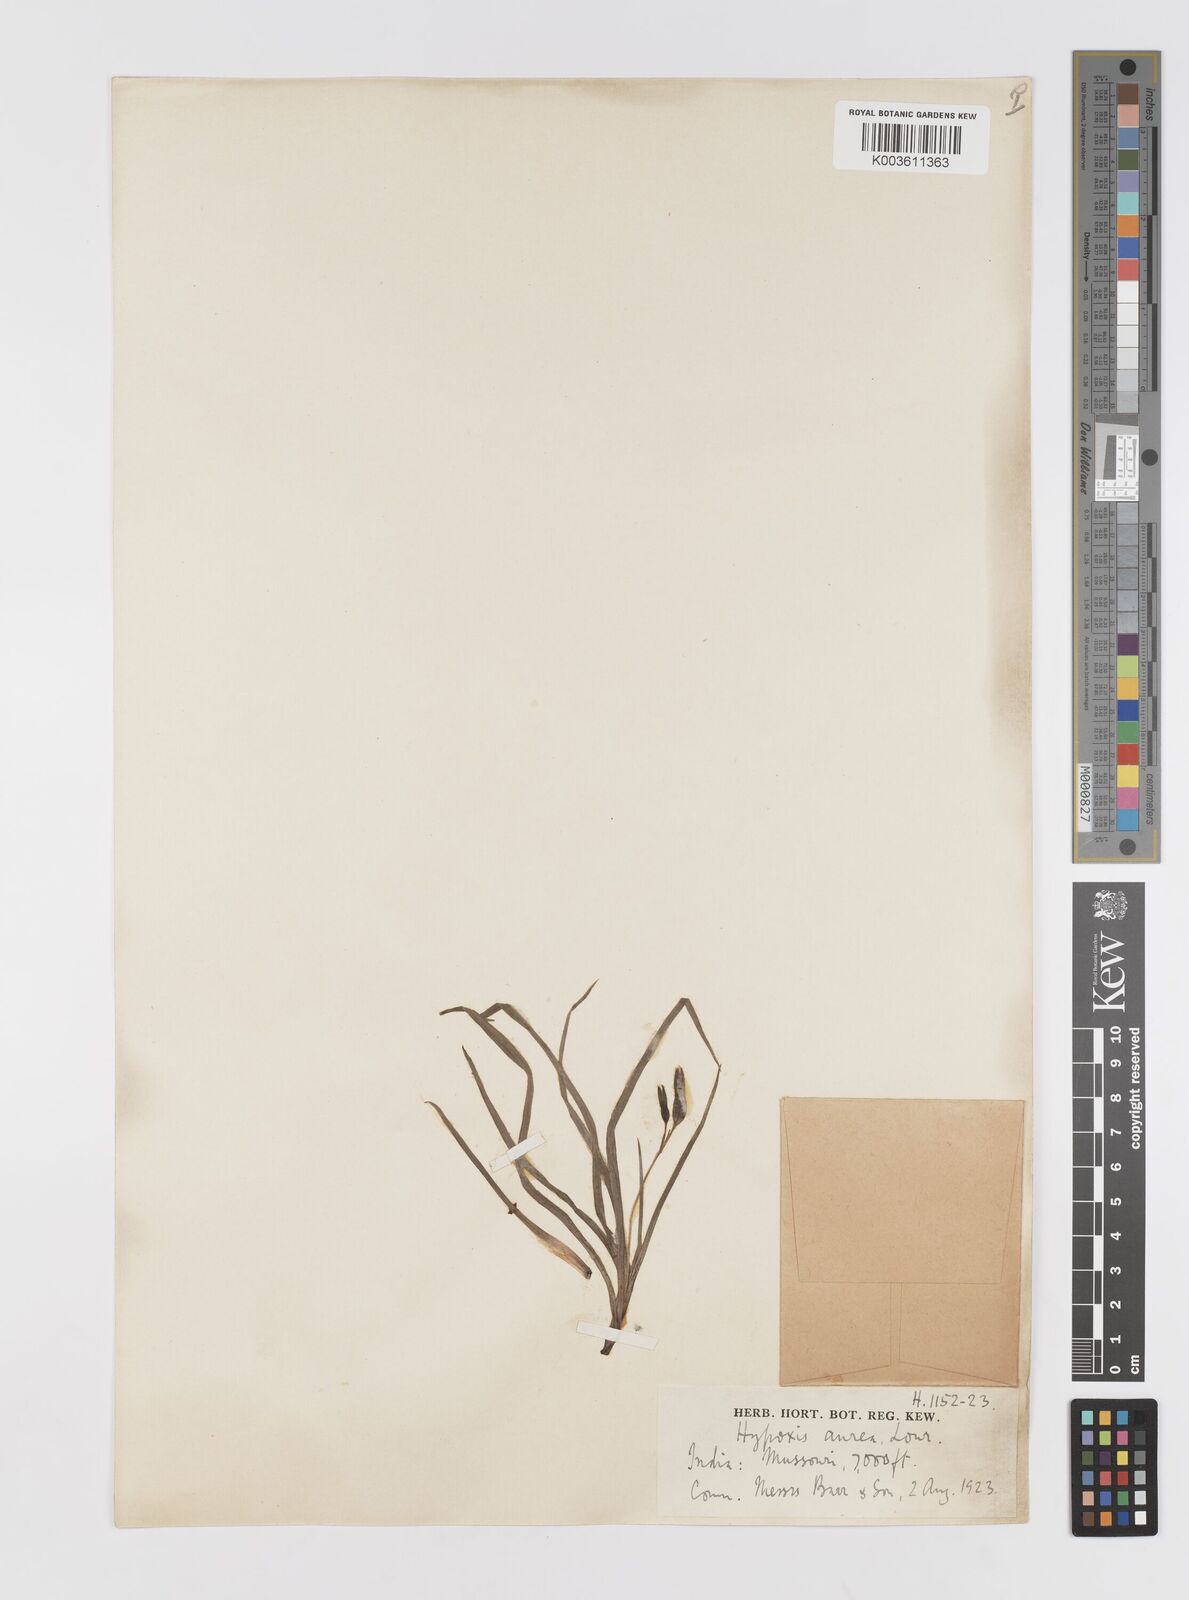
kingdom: Plantae
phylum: Tracheophyta
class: Liliopsida
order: Asparagales
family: Hypoxidaceae
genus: Hypoxis
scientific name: Hypoxis aurea
